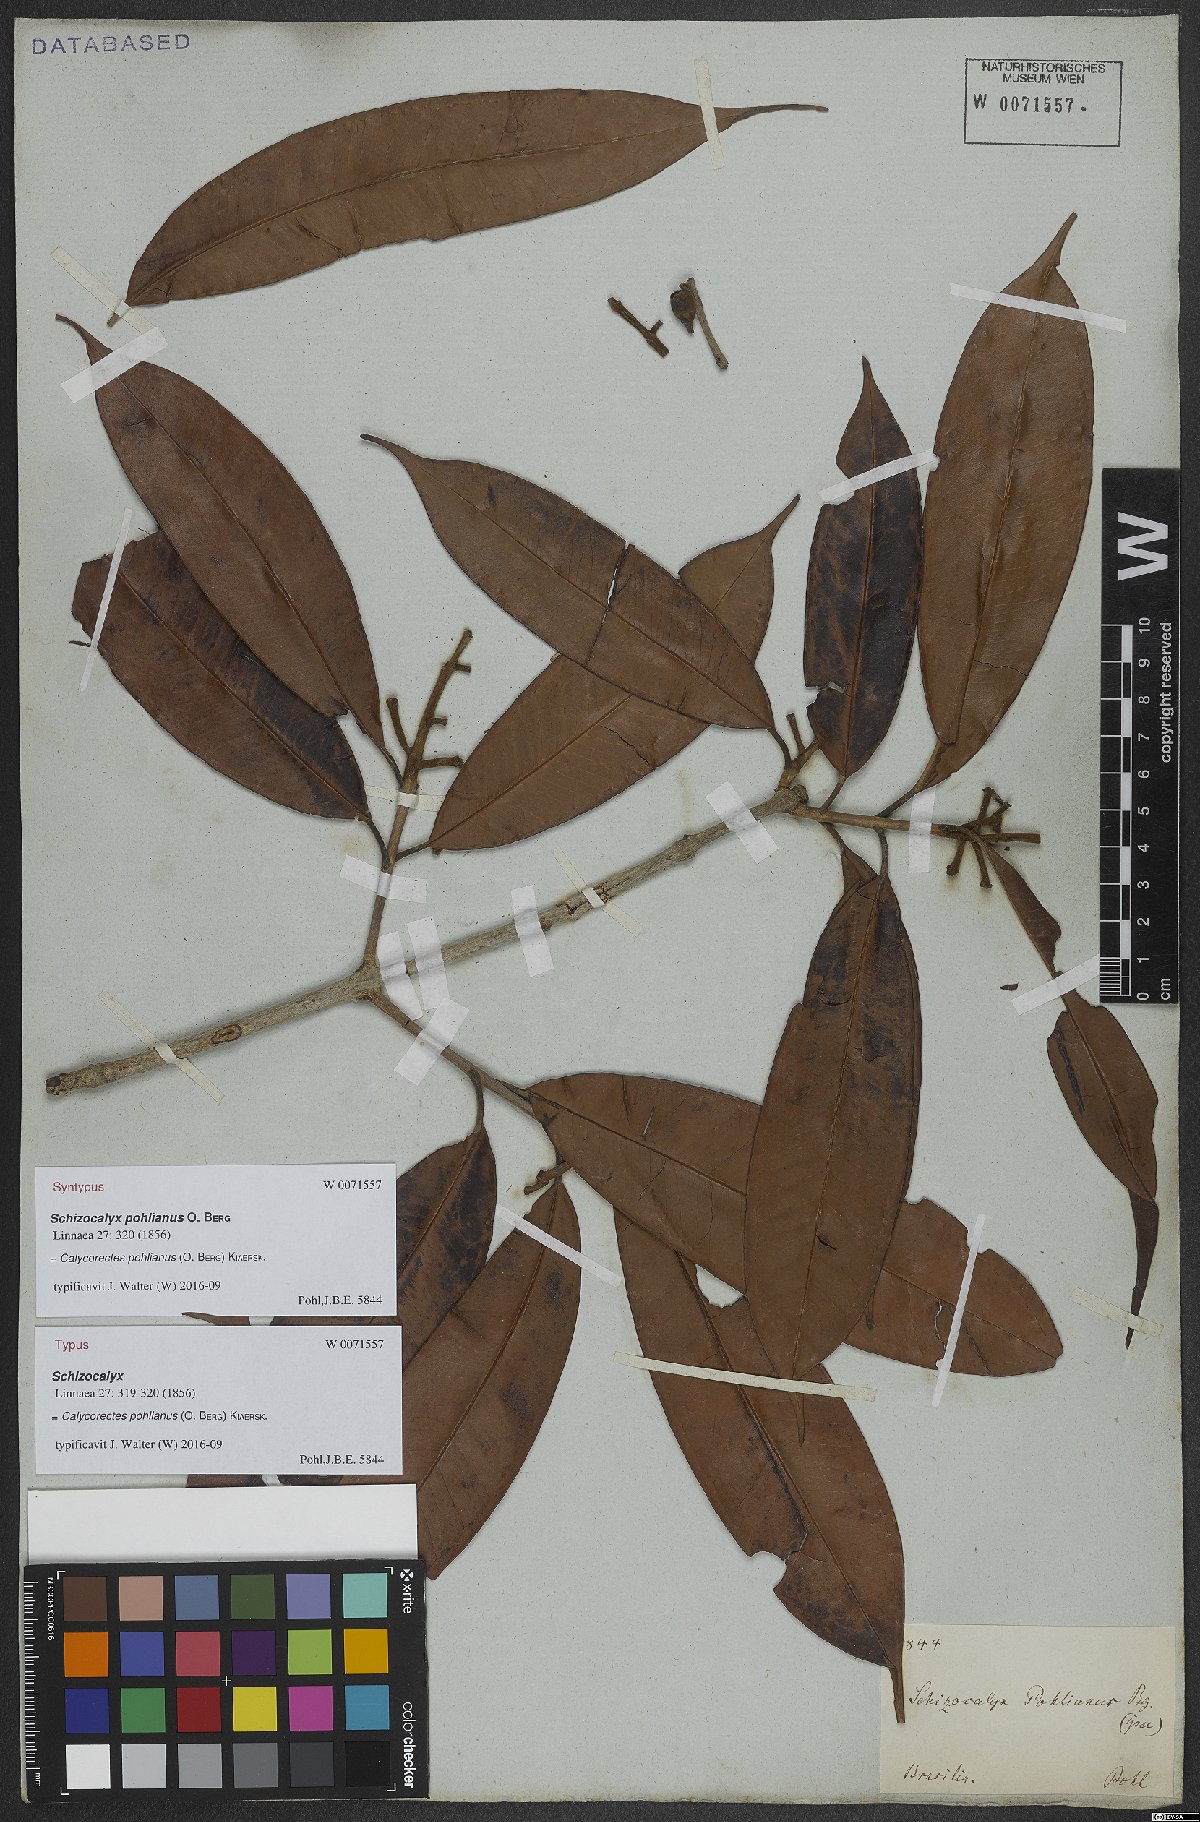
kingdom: Plantae
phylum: Tracheophyta
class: Magnoliopsida
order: Myrtales
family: Myrtaceae
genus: Eugenia
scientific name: Eugenia cambucae
